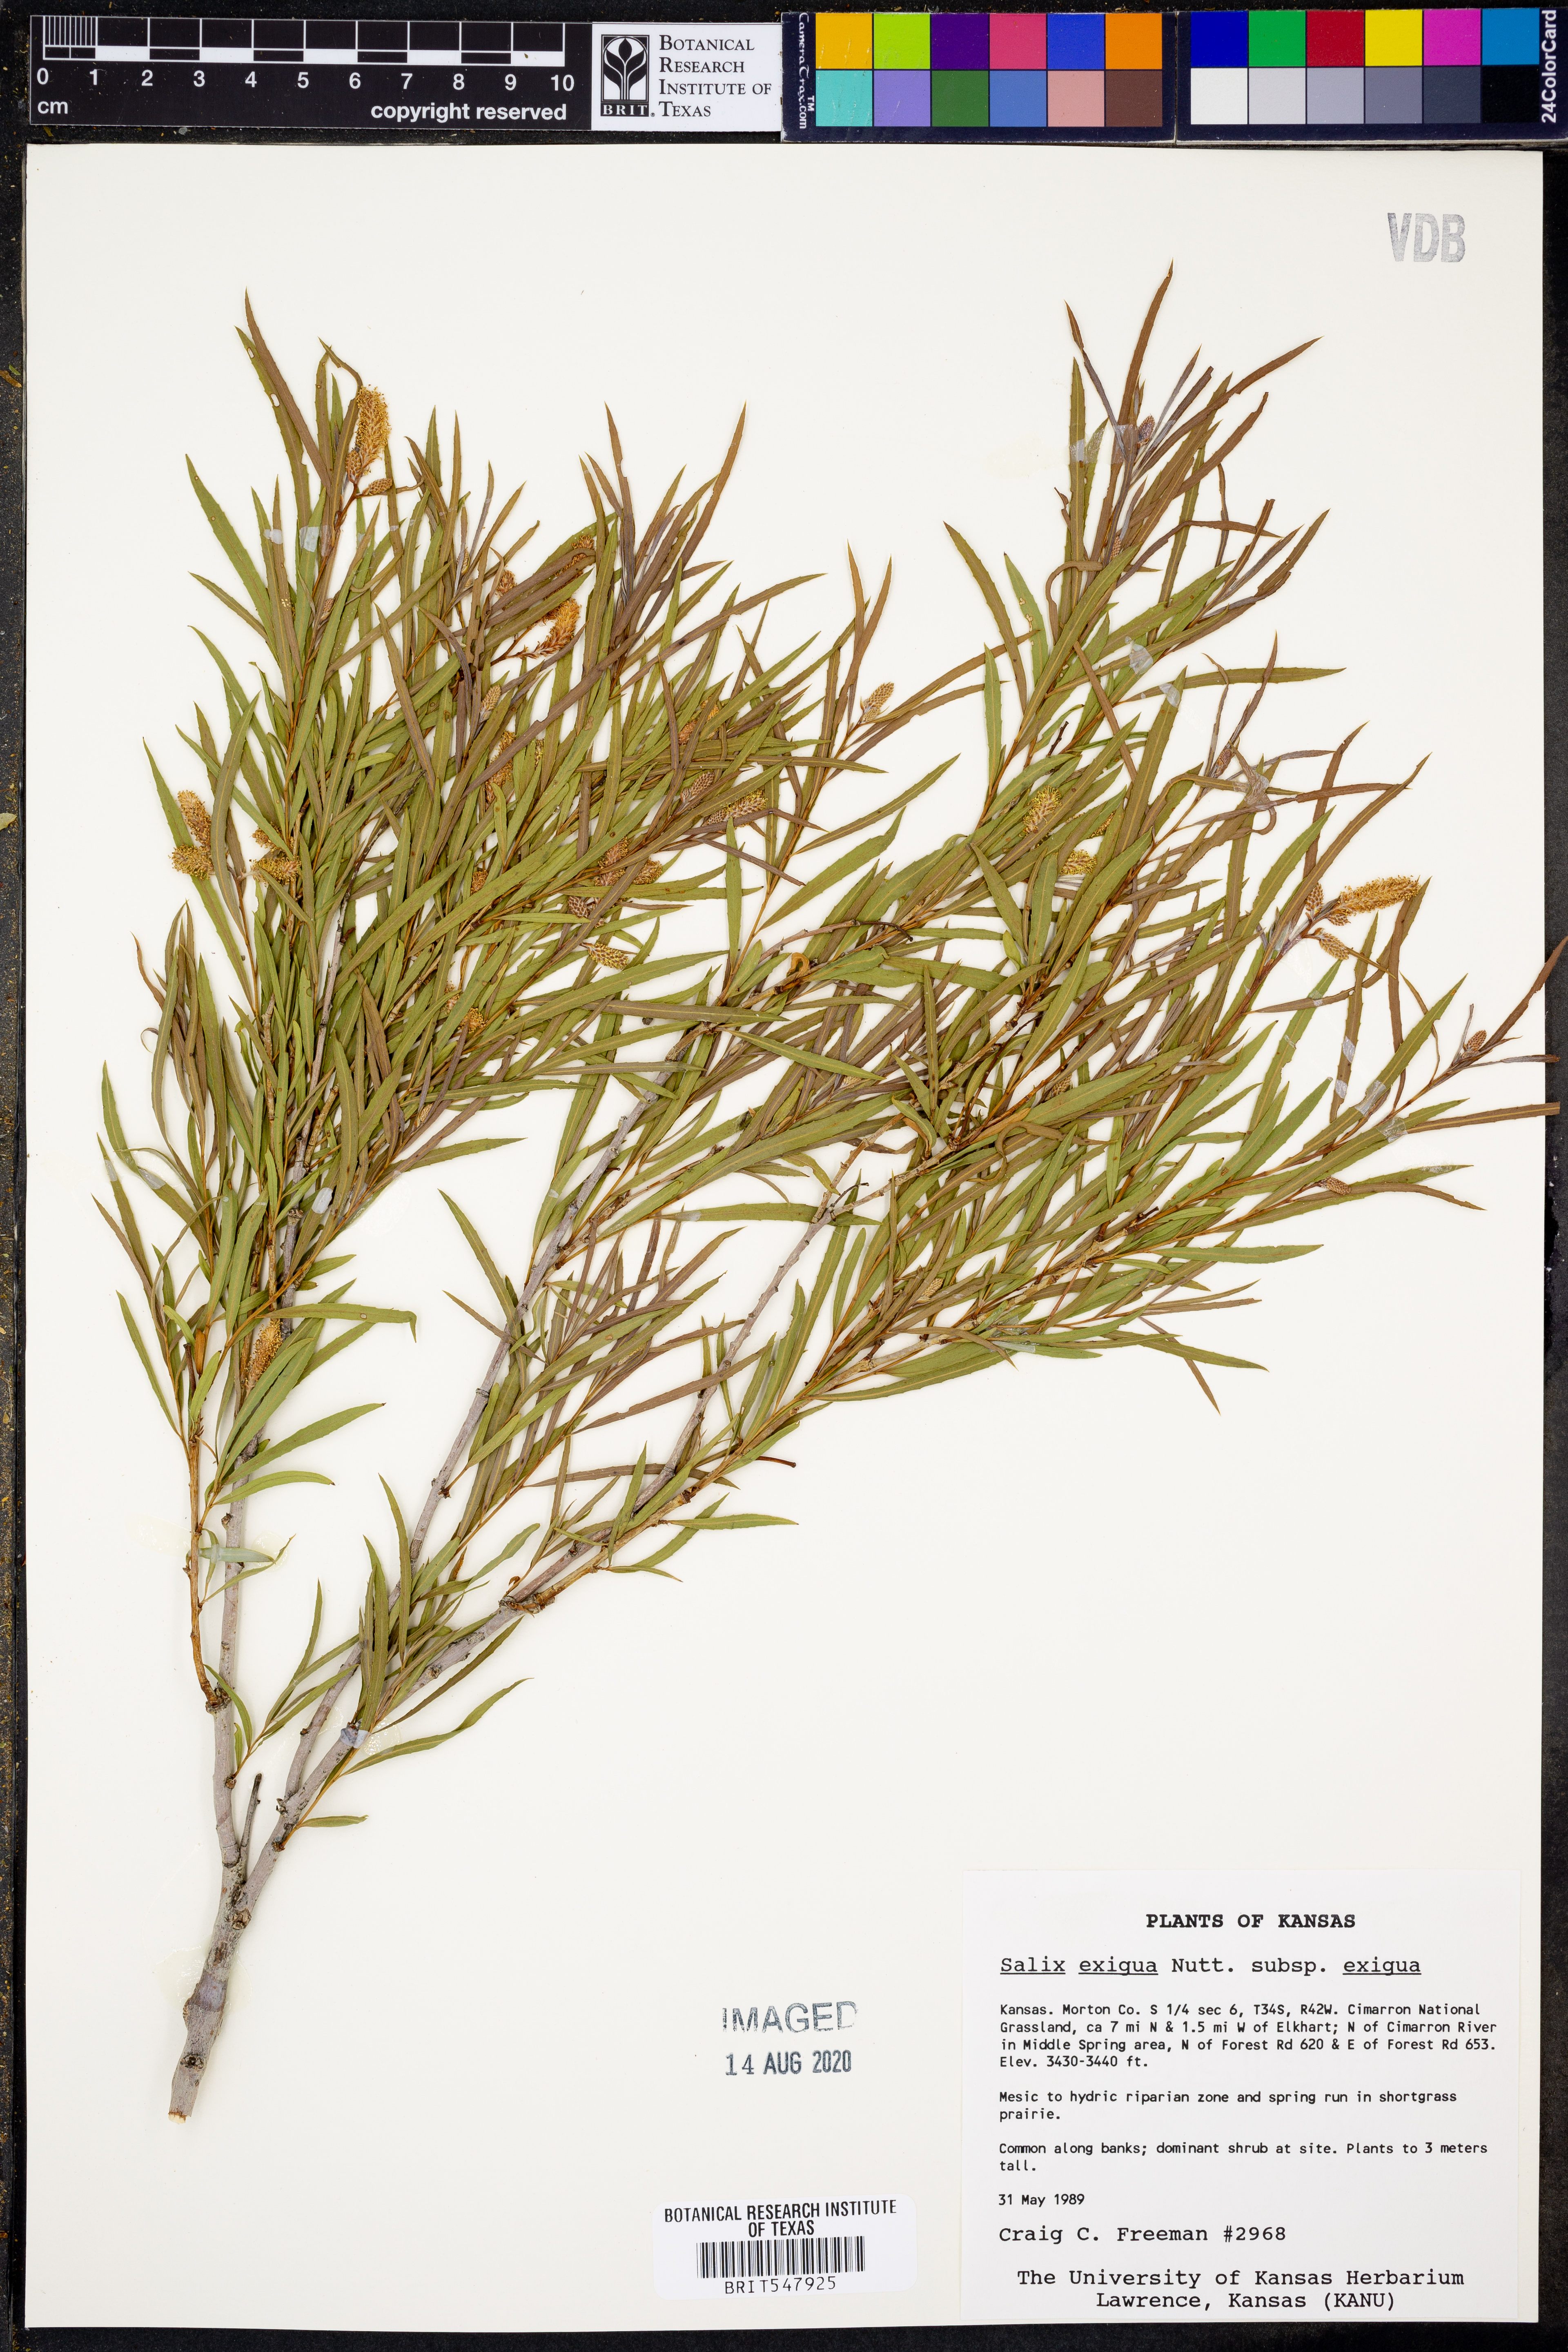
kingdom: Plantae
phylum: Tracheophyta
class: Magnoliopsida
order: Malpighiales
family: Salicaceae
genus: Salix
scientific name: Salix exigua
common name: Coyote willow
